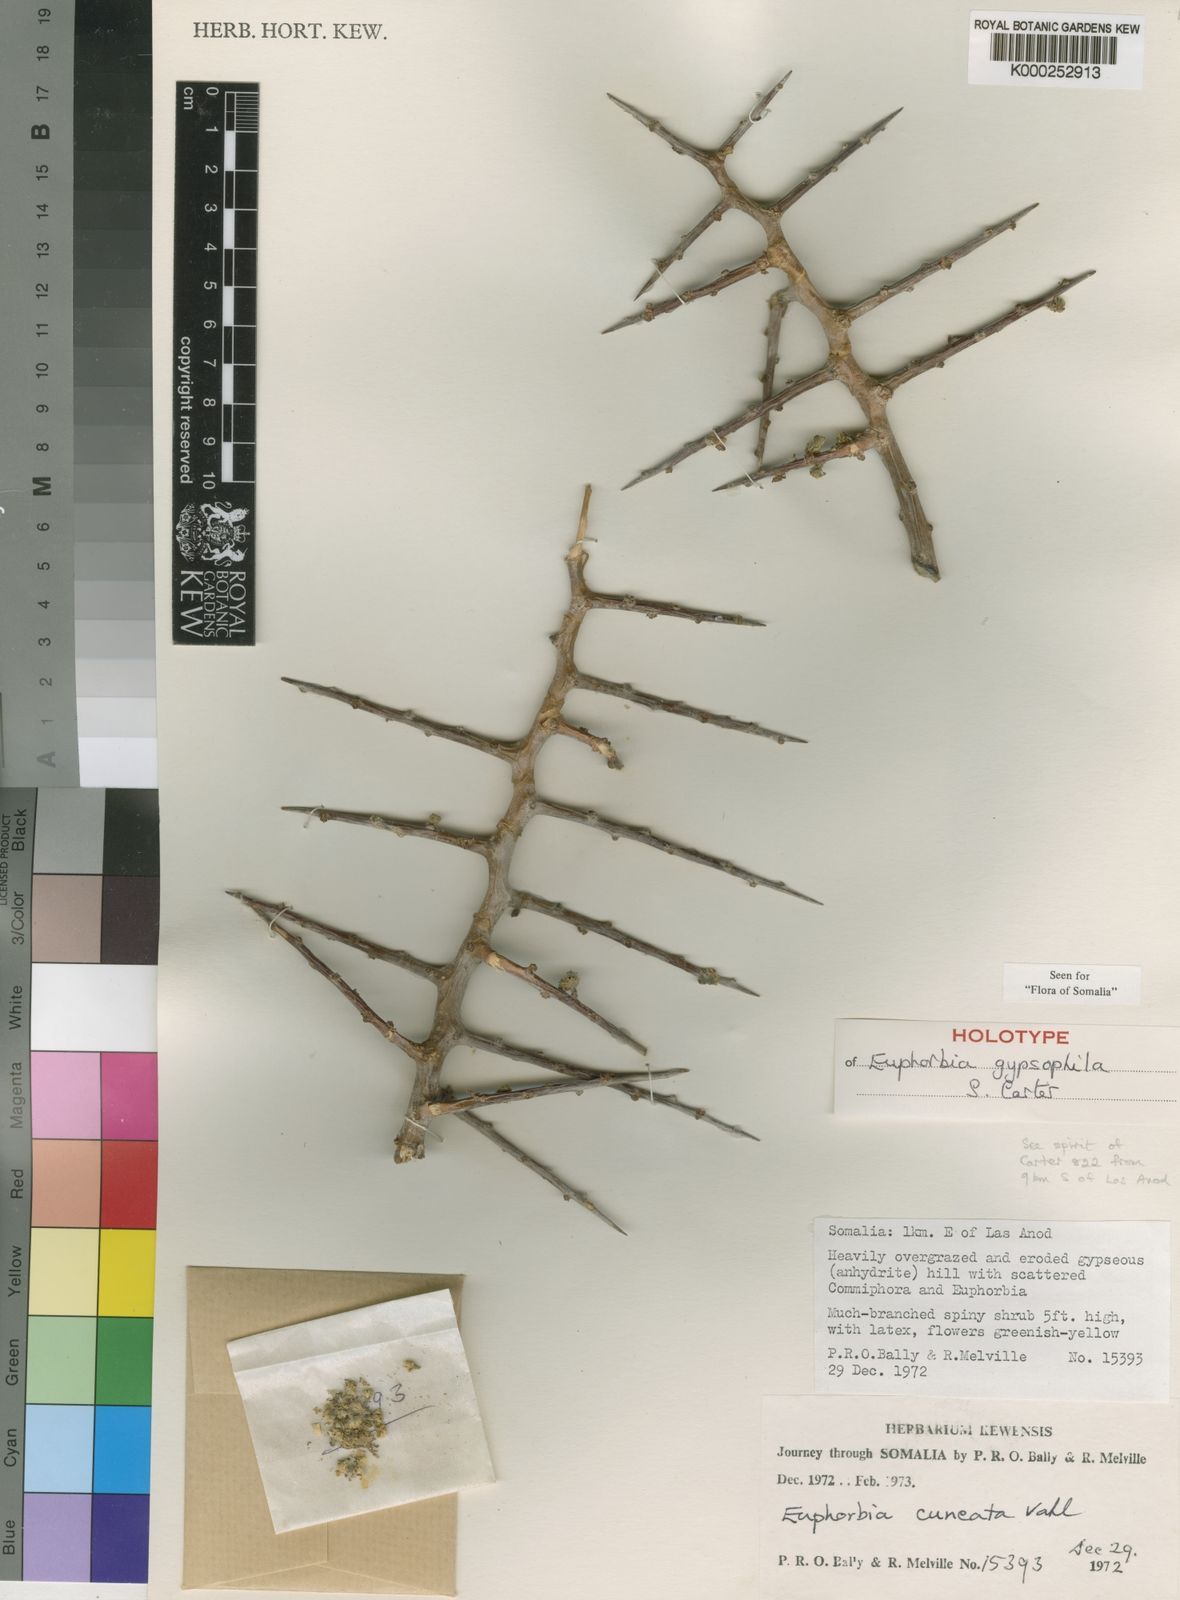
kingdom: Plantae
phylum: Tracheophyta
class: Magnoliopsida
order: Malpighiales
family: Euphorbiaceae
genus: Euphorbia
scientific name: Euphorbia gypsophila
